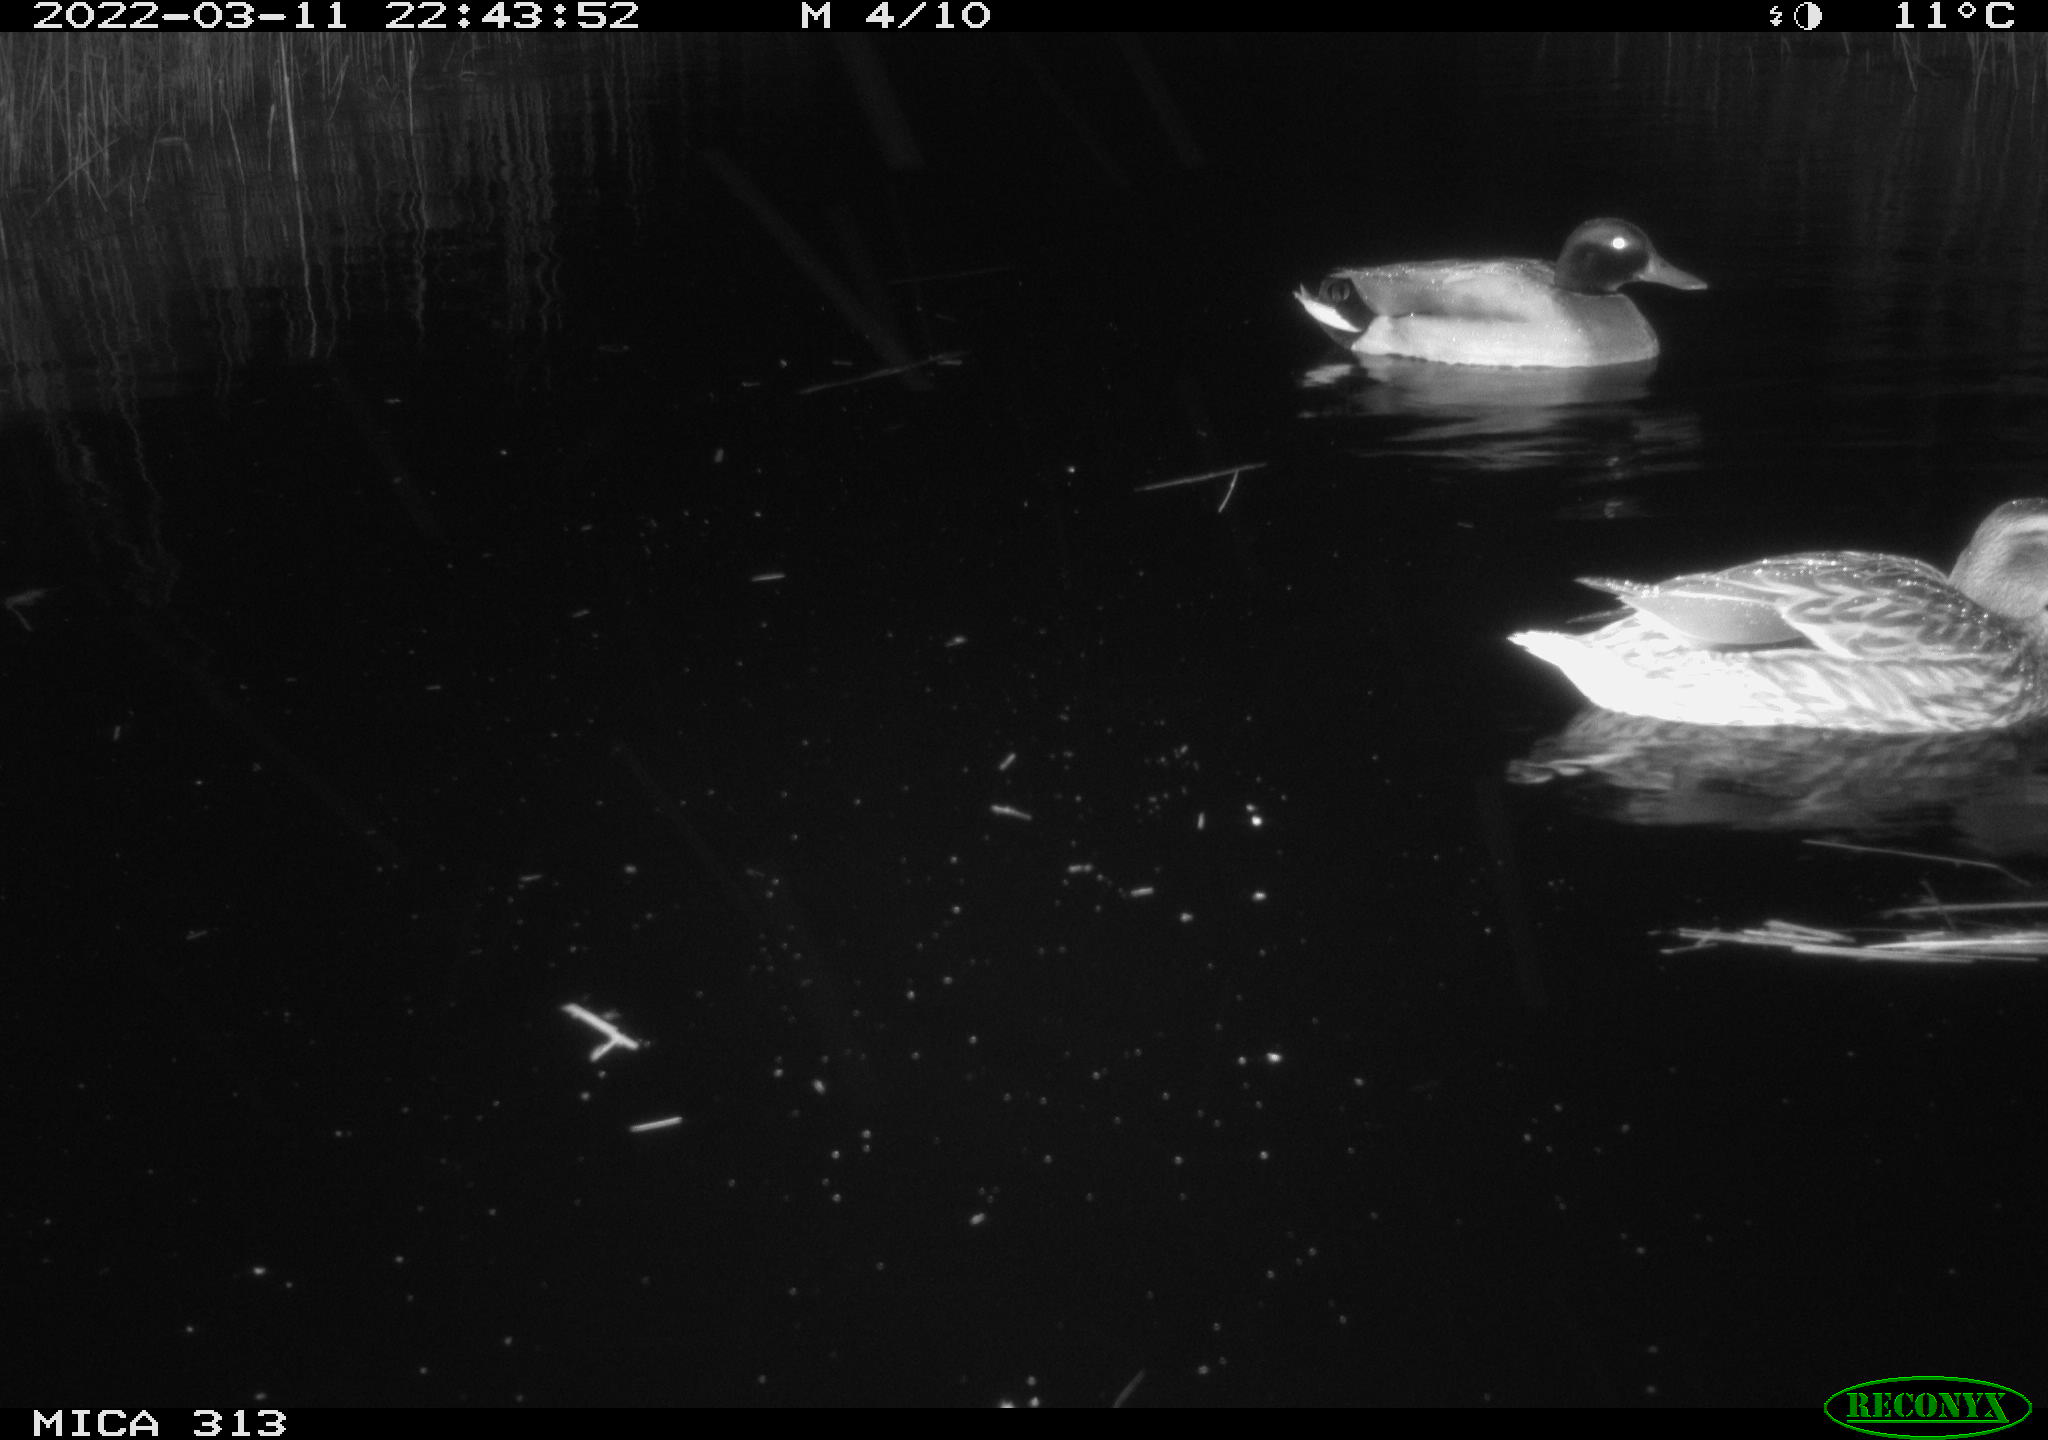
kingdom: Animalia
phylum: Chordata
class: Aves
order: Anseriformes
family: Anatidae
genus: Anas
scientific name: Anas platyrhynchos
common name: Mallard
